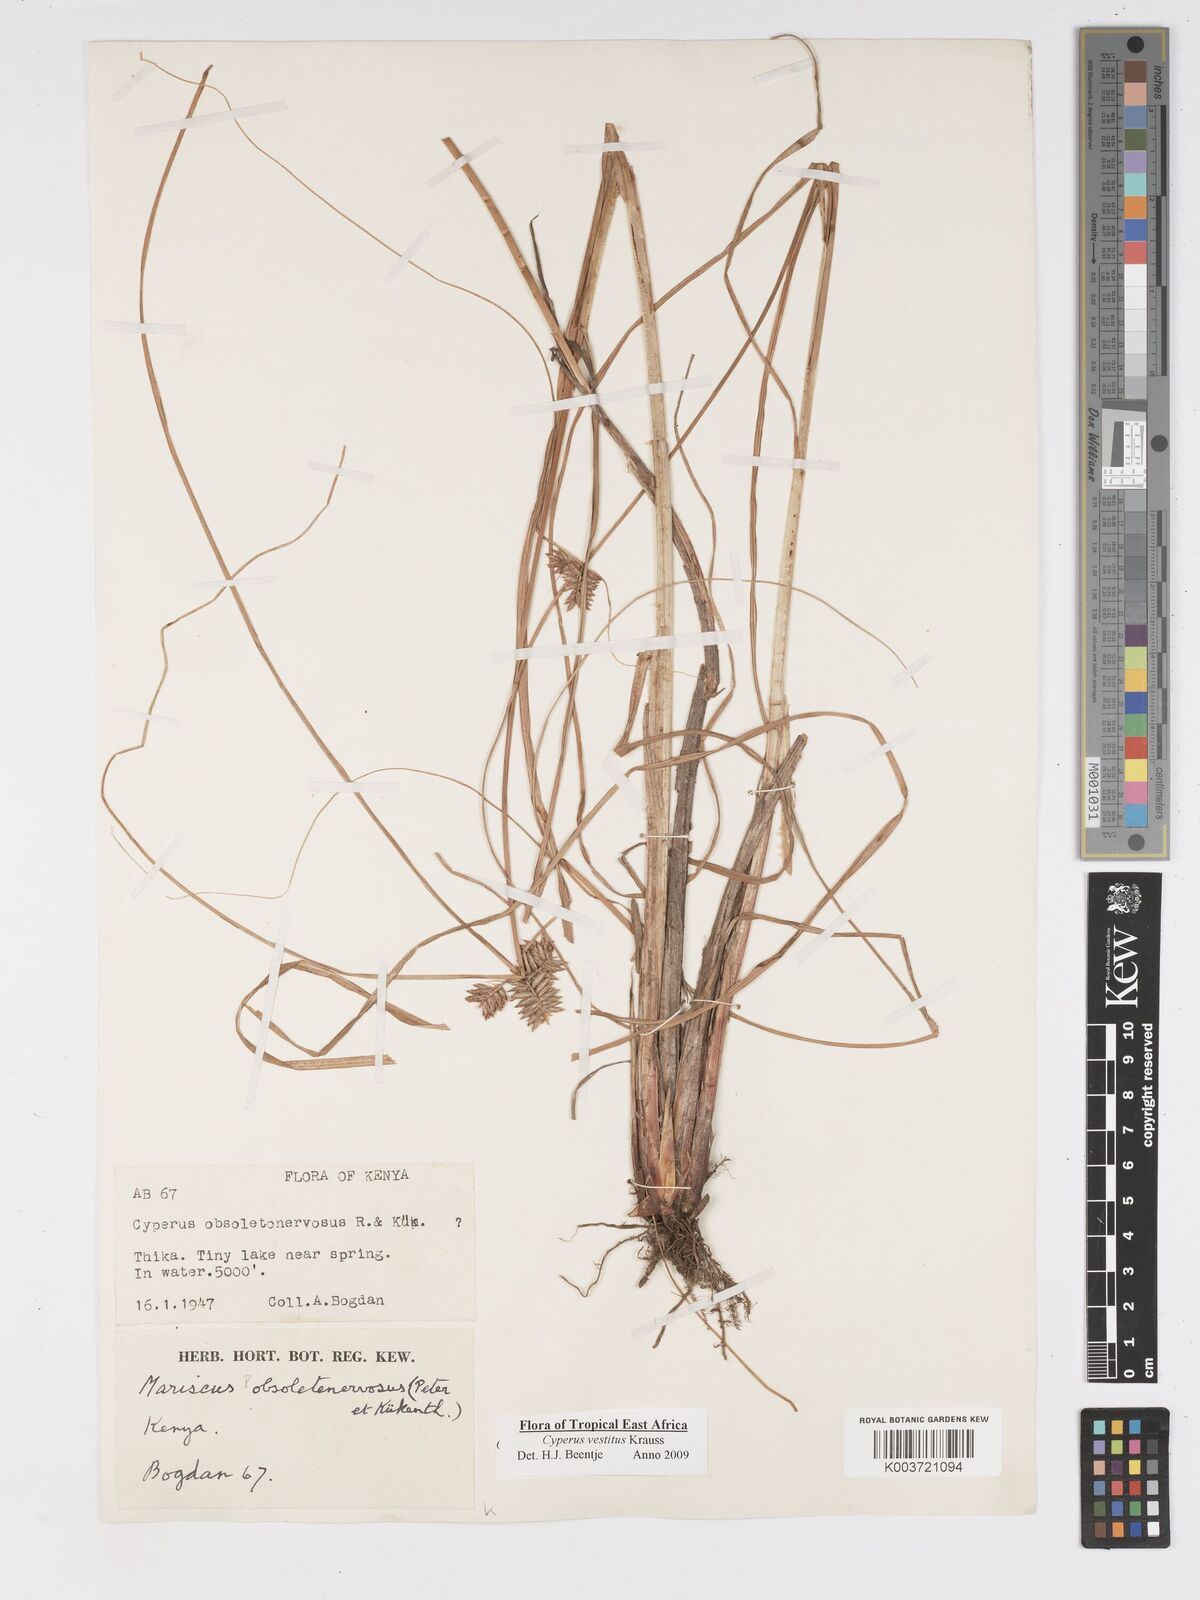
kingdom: Plantae
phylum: Tracheophyta
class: Liliopsida
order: Poales
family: Cyperaceae
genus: Cyperus
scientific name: Cyperus vestitus
